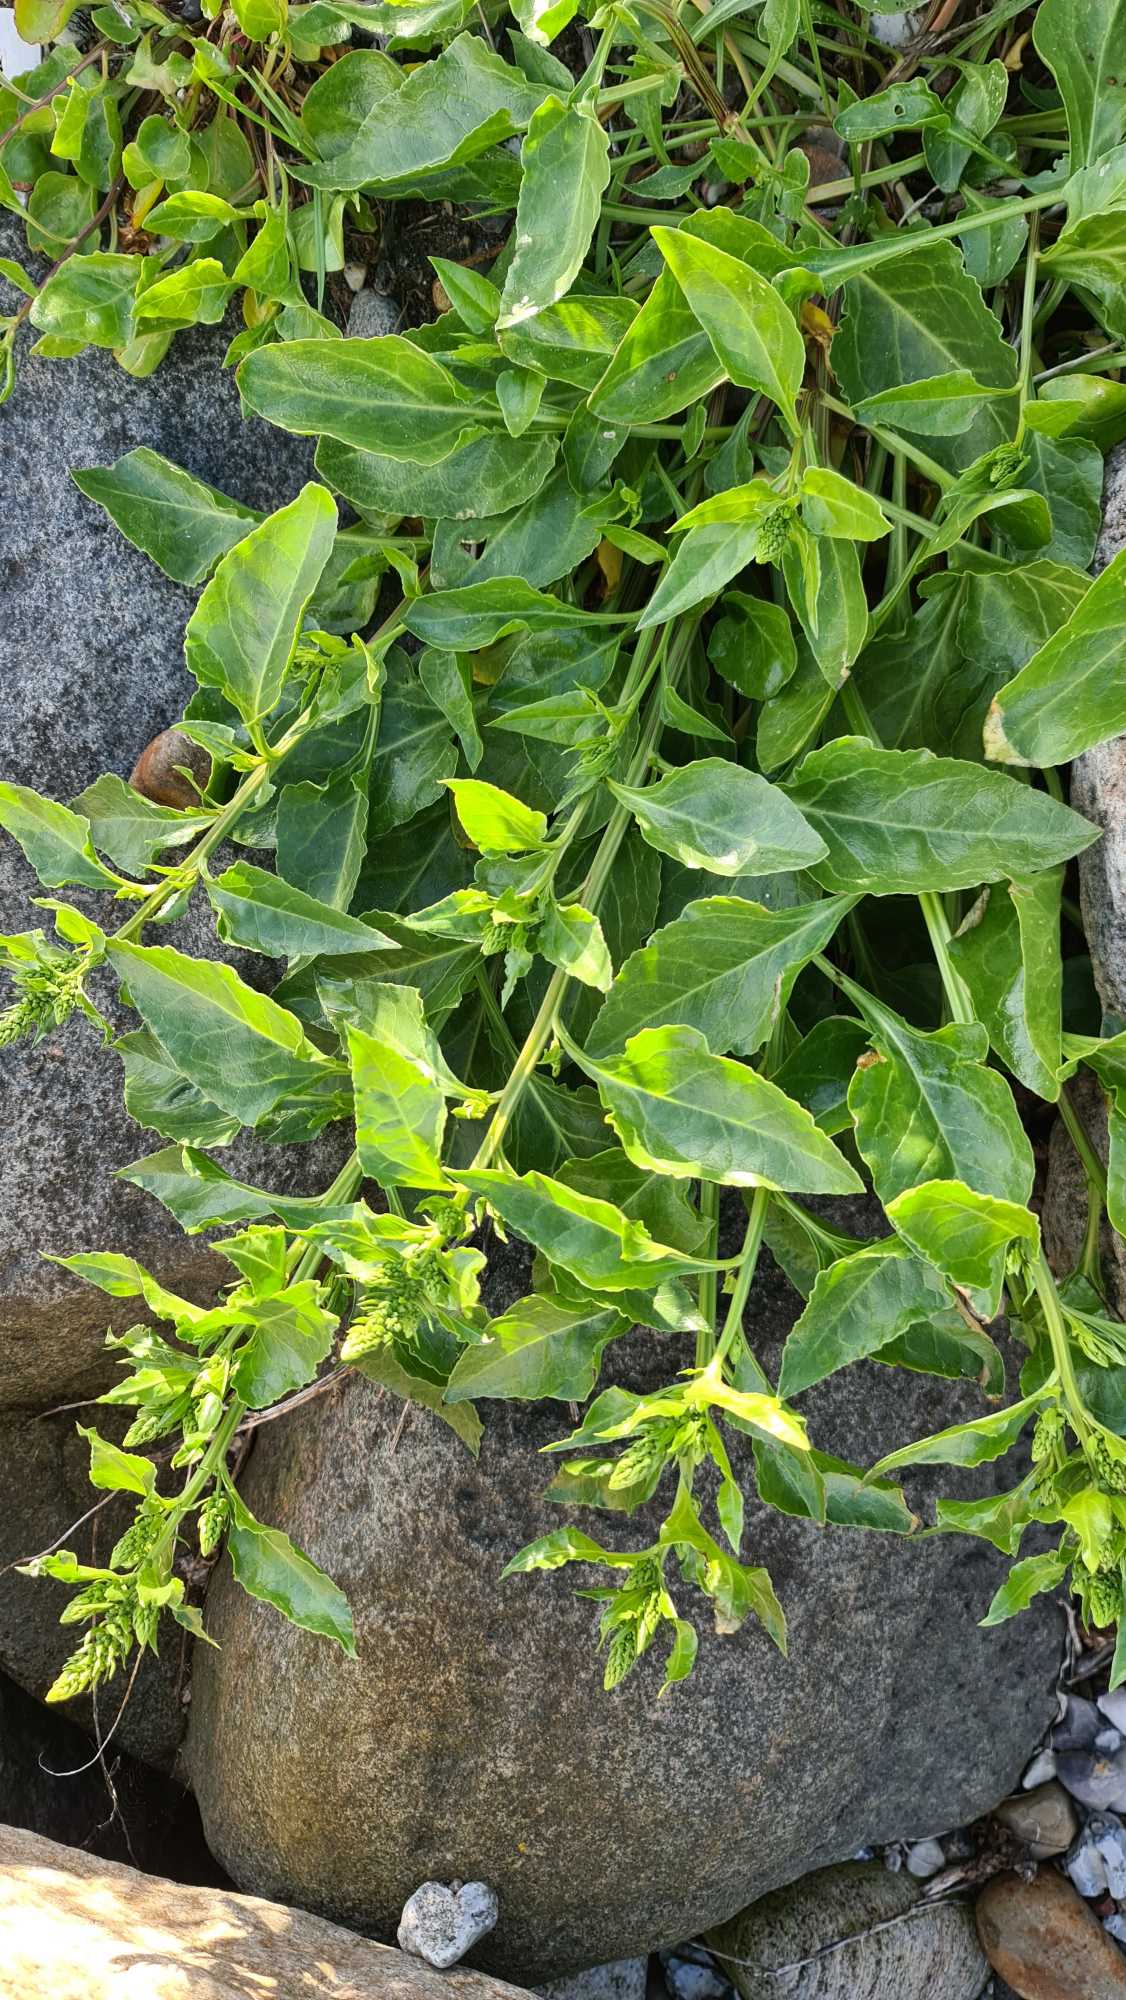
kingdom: Plantae
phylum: Tracheophyta
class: Magnoliopsida
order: Caryophyllales
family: Amaranthaceae
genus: Beta
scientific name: Beta maritima
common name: Strand-bede
